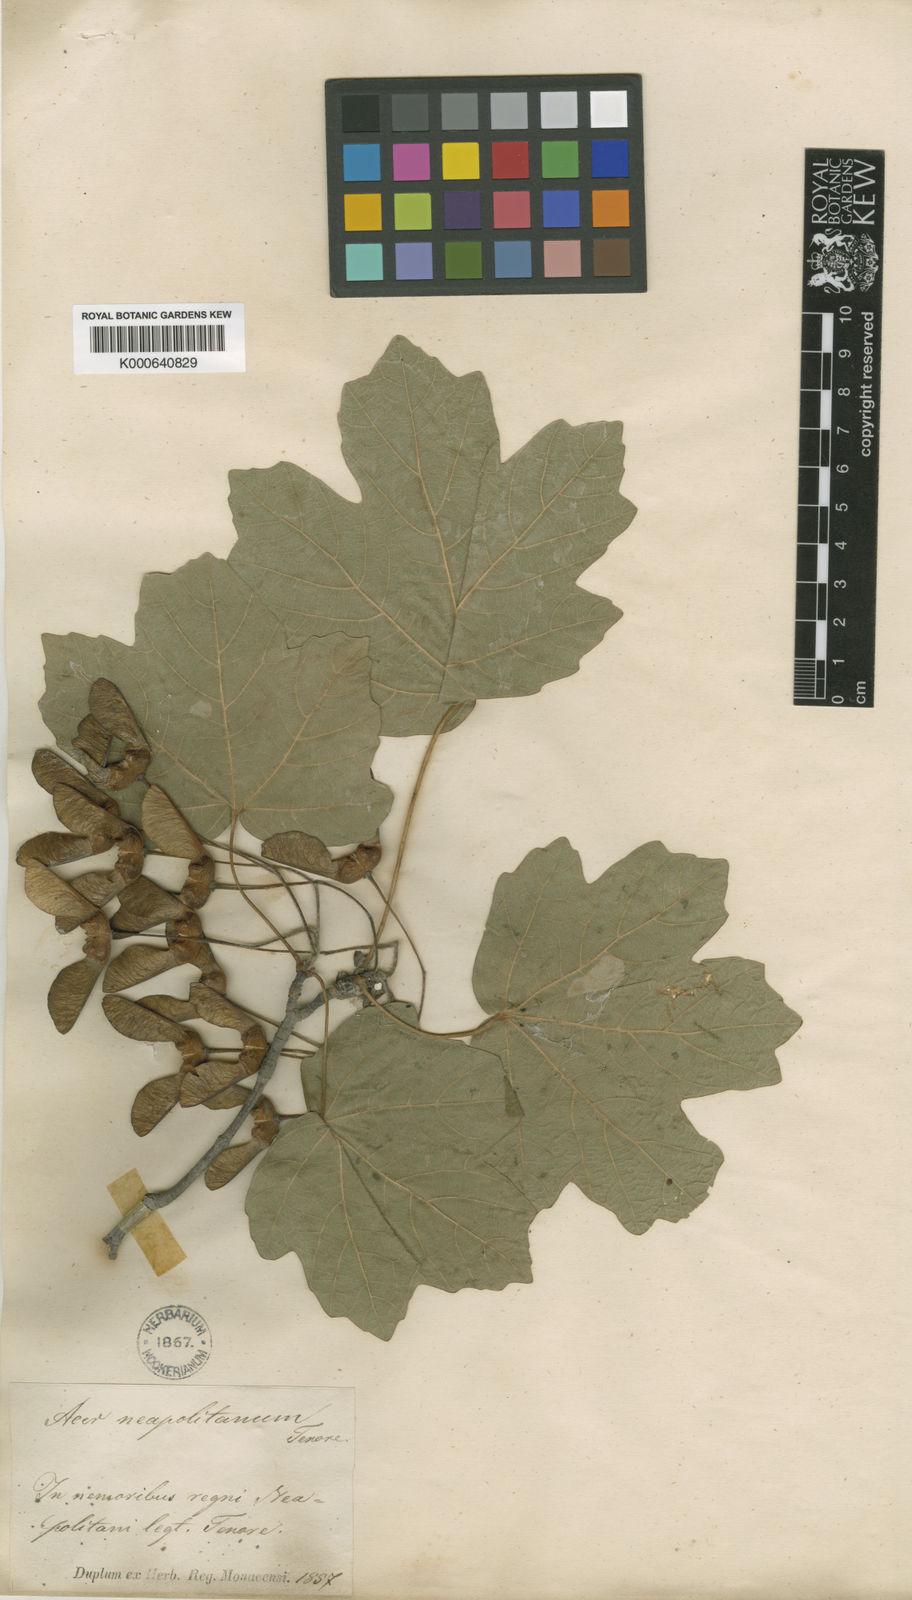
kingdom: Plantae
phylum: Tracheophyta
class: Magnoliopsida
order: Sapindales
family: Sapindaceae
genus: Acer
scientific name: Acer opalus
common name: Italian maple
